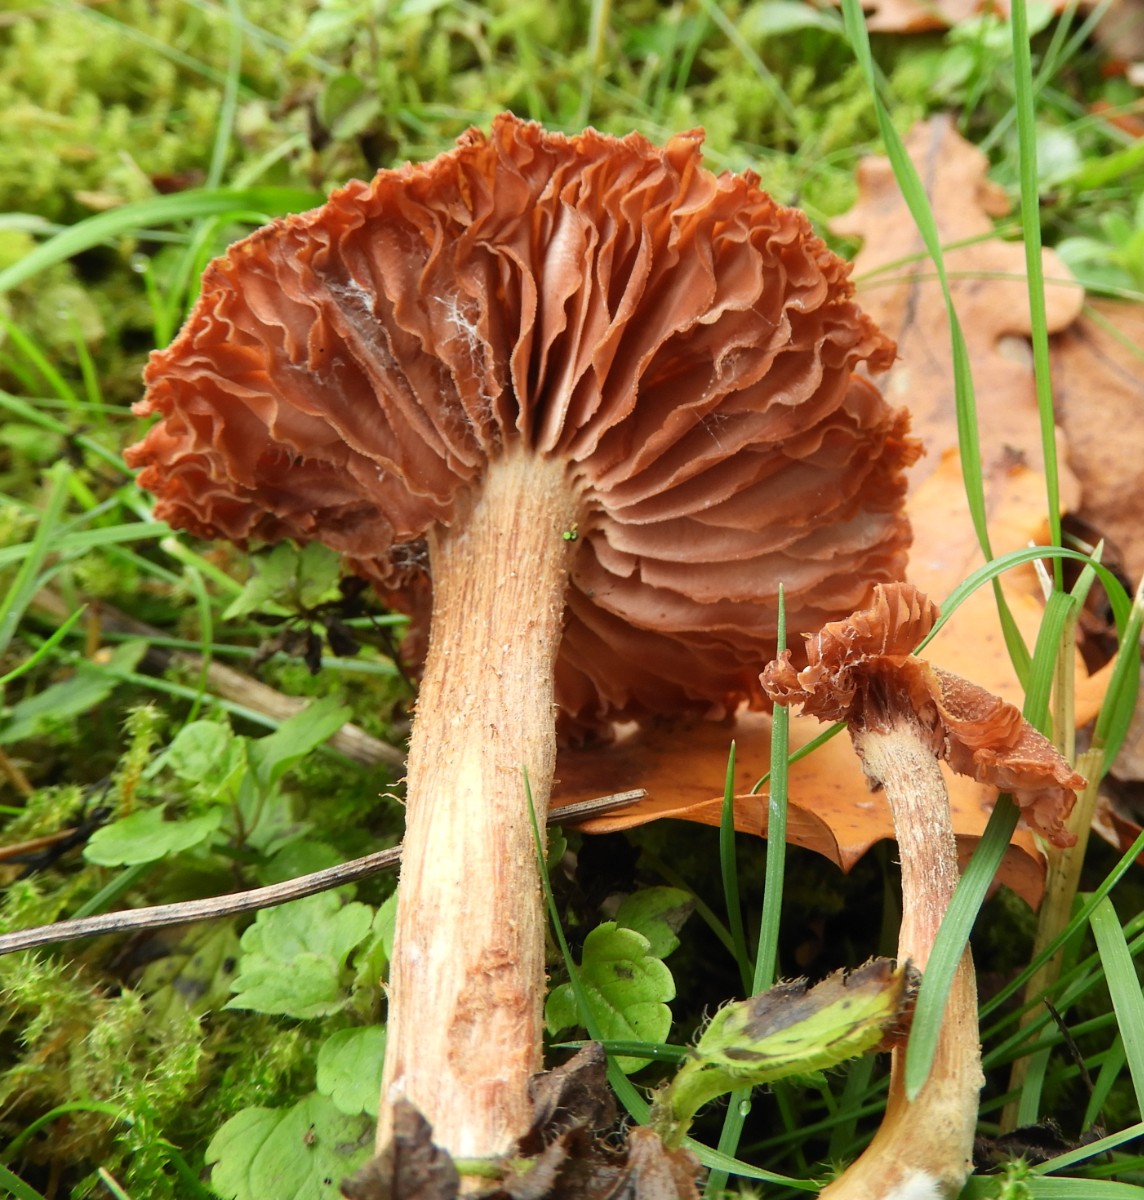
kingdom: Fungi
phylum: Basidiomycota
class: Agaricomycetes
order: Agaricales
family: Hydnangiaceae
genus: Laccaria
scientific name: Laccaria proxima
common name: stor ametysthat
